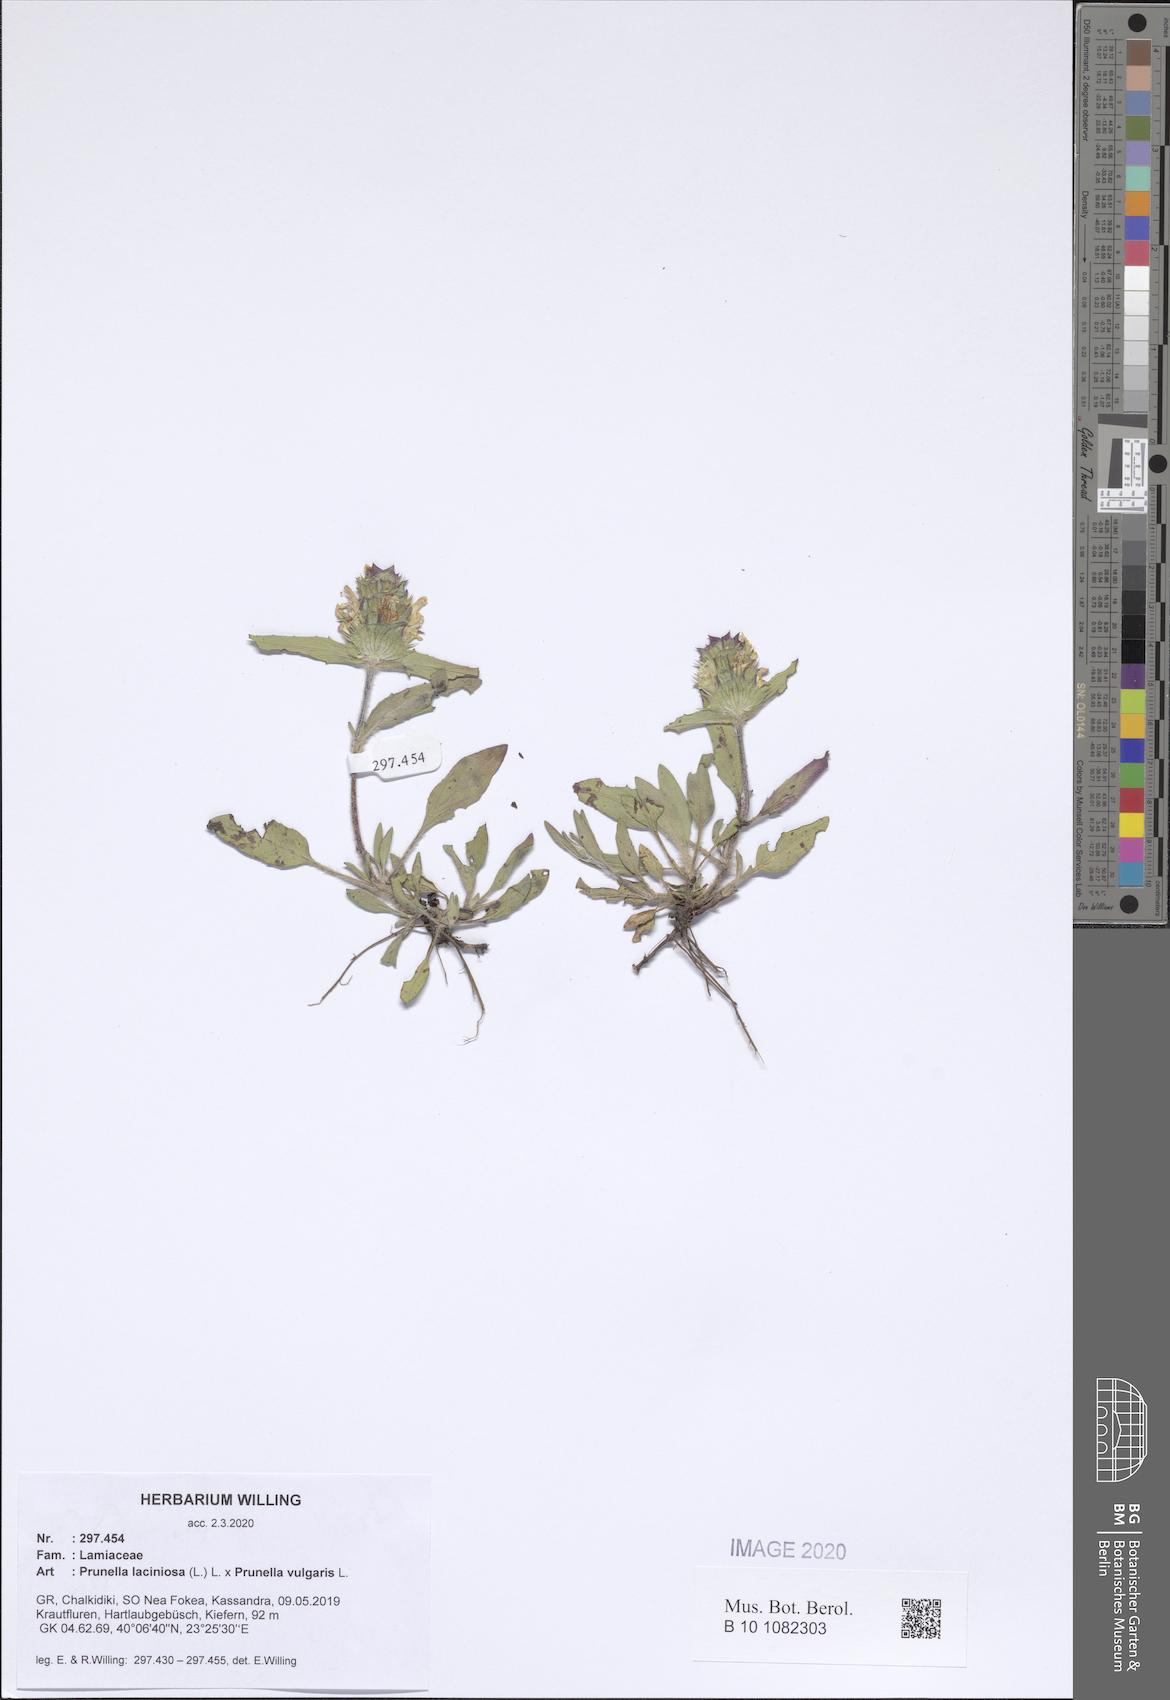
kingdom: Plantae
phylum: Tracheophyta
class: Magnoliopsida
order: Lamiales
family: Lamiaceae
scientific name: Lamiaceae
